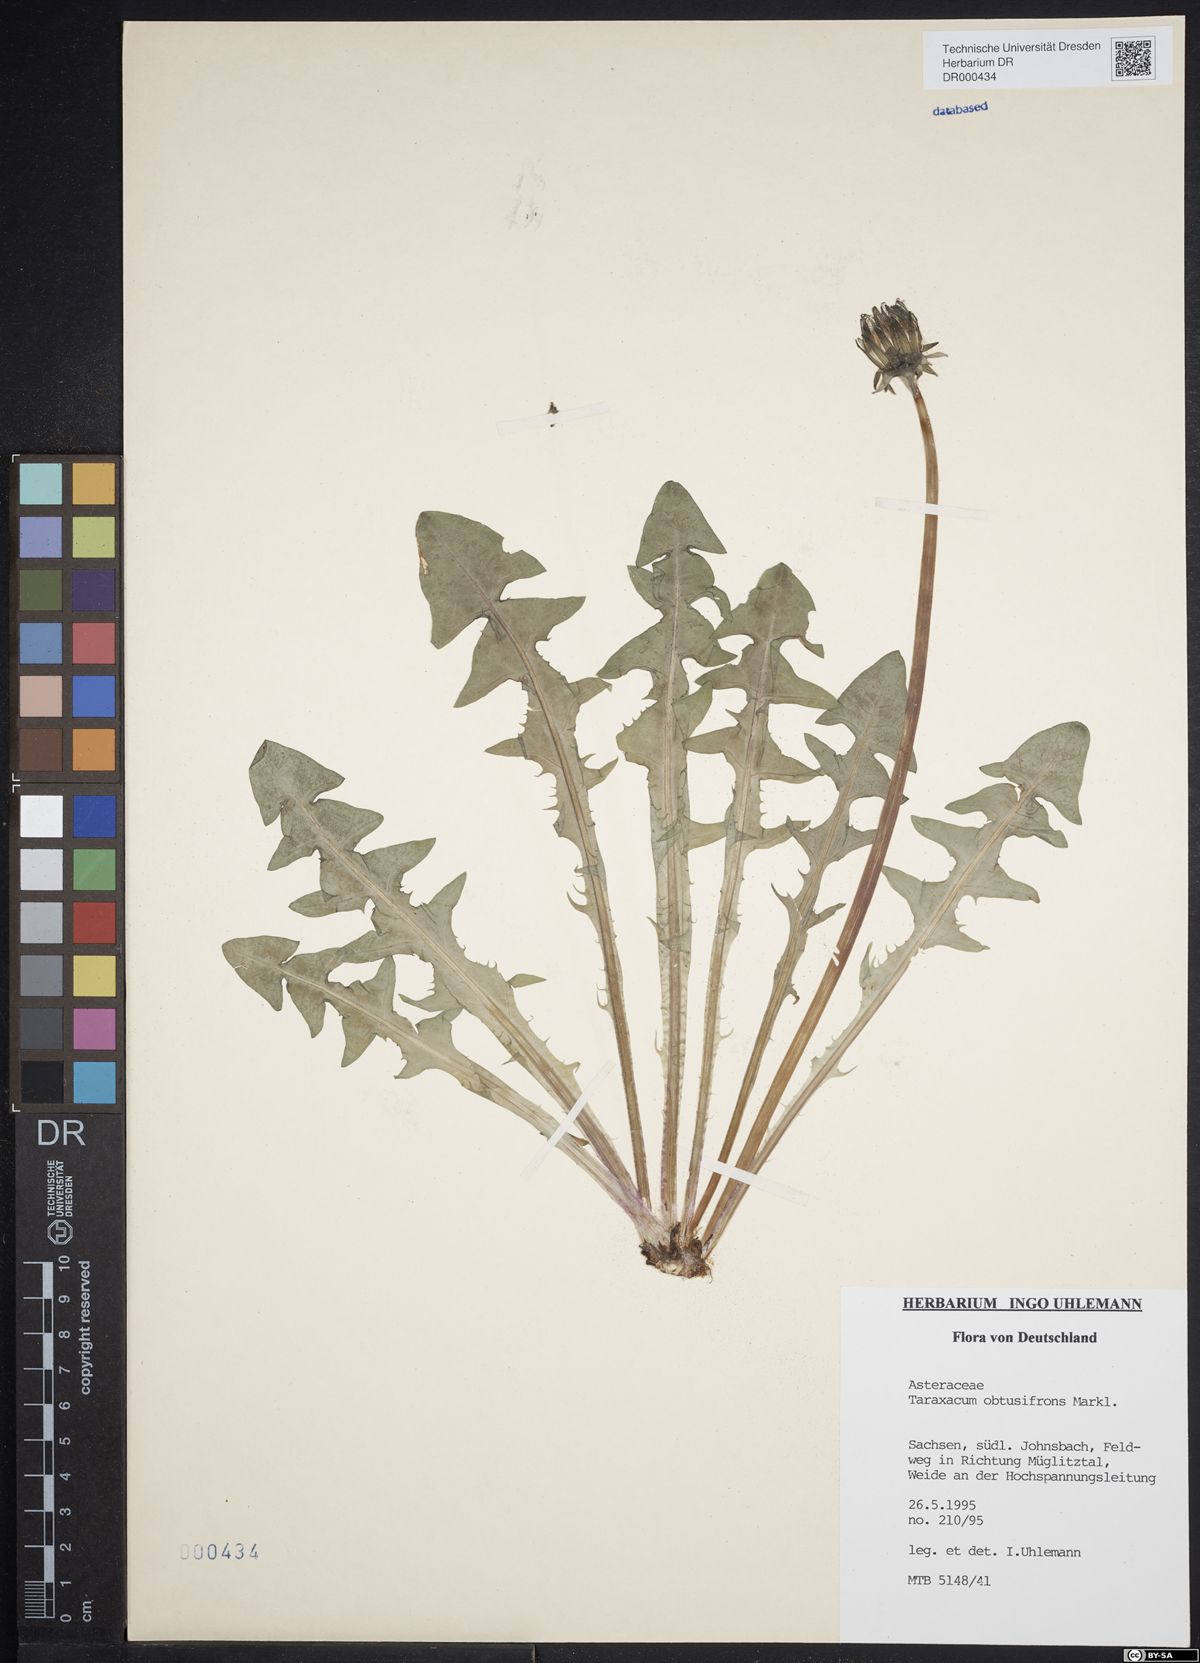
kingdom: Plantae
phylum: Tracheophyta
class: Magnoliopsida
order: Asterales
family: Asteraceae
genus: Taraxacum
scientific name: Taraxacum obtusifrons
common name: Obtuse-leaved dandelion
